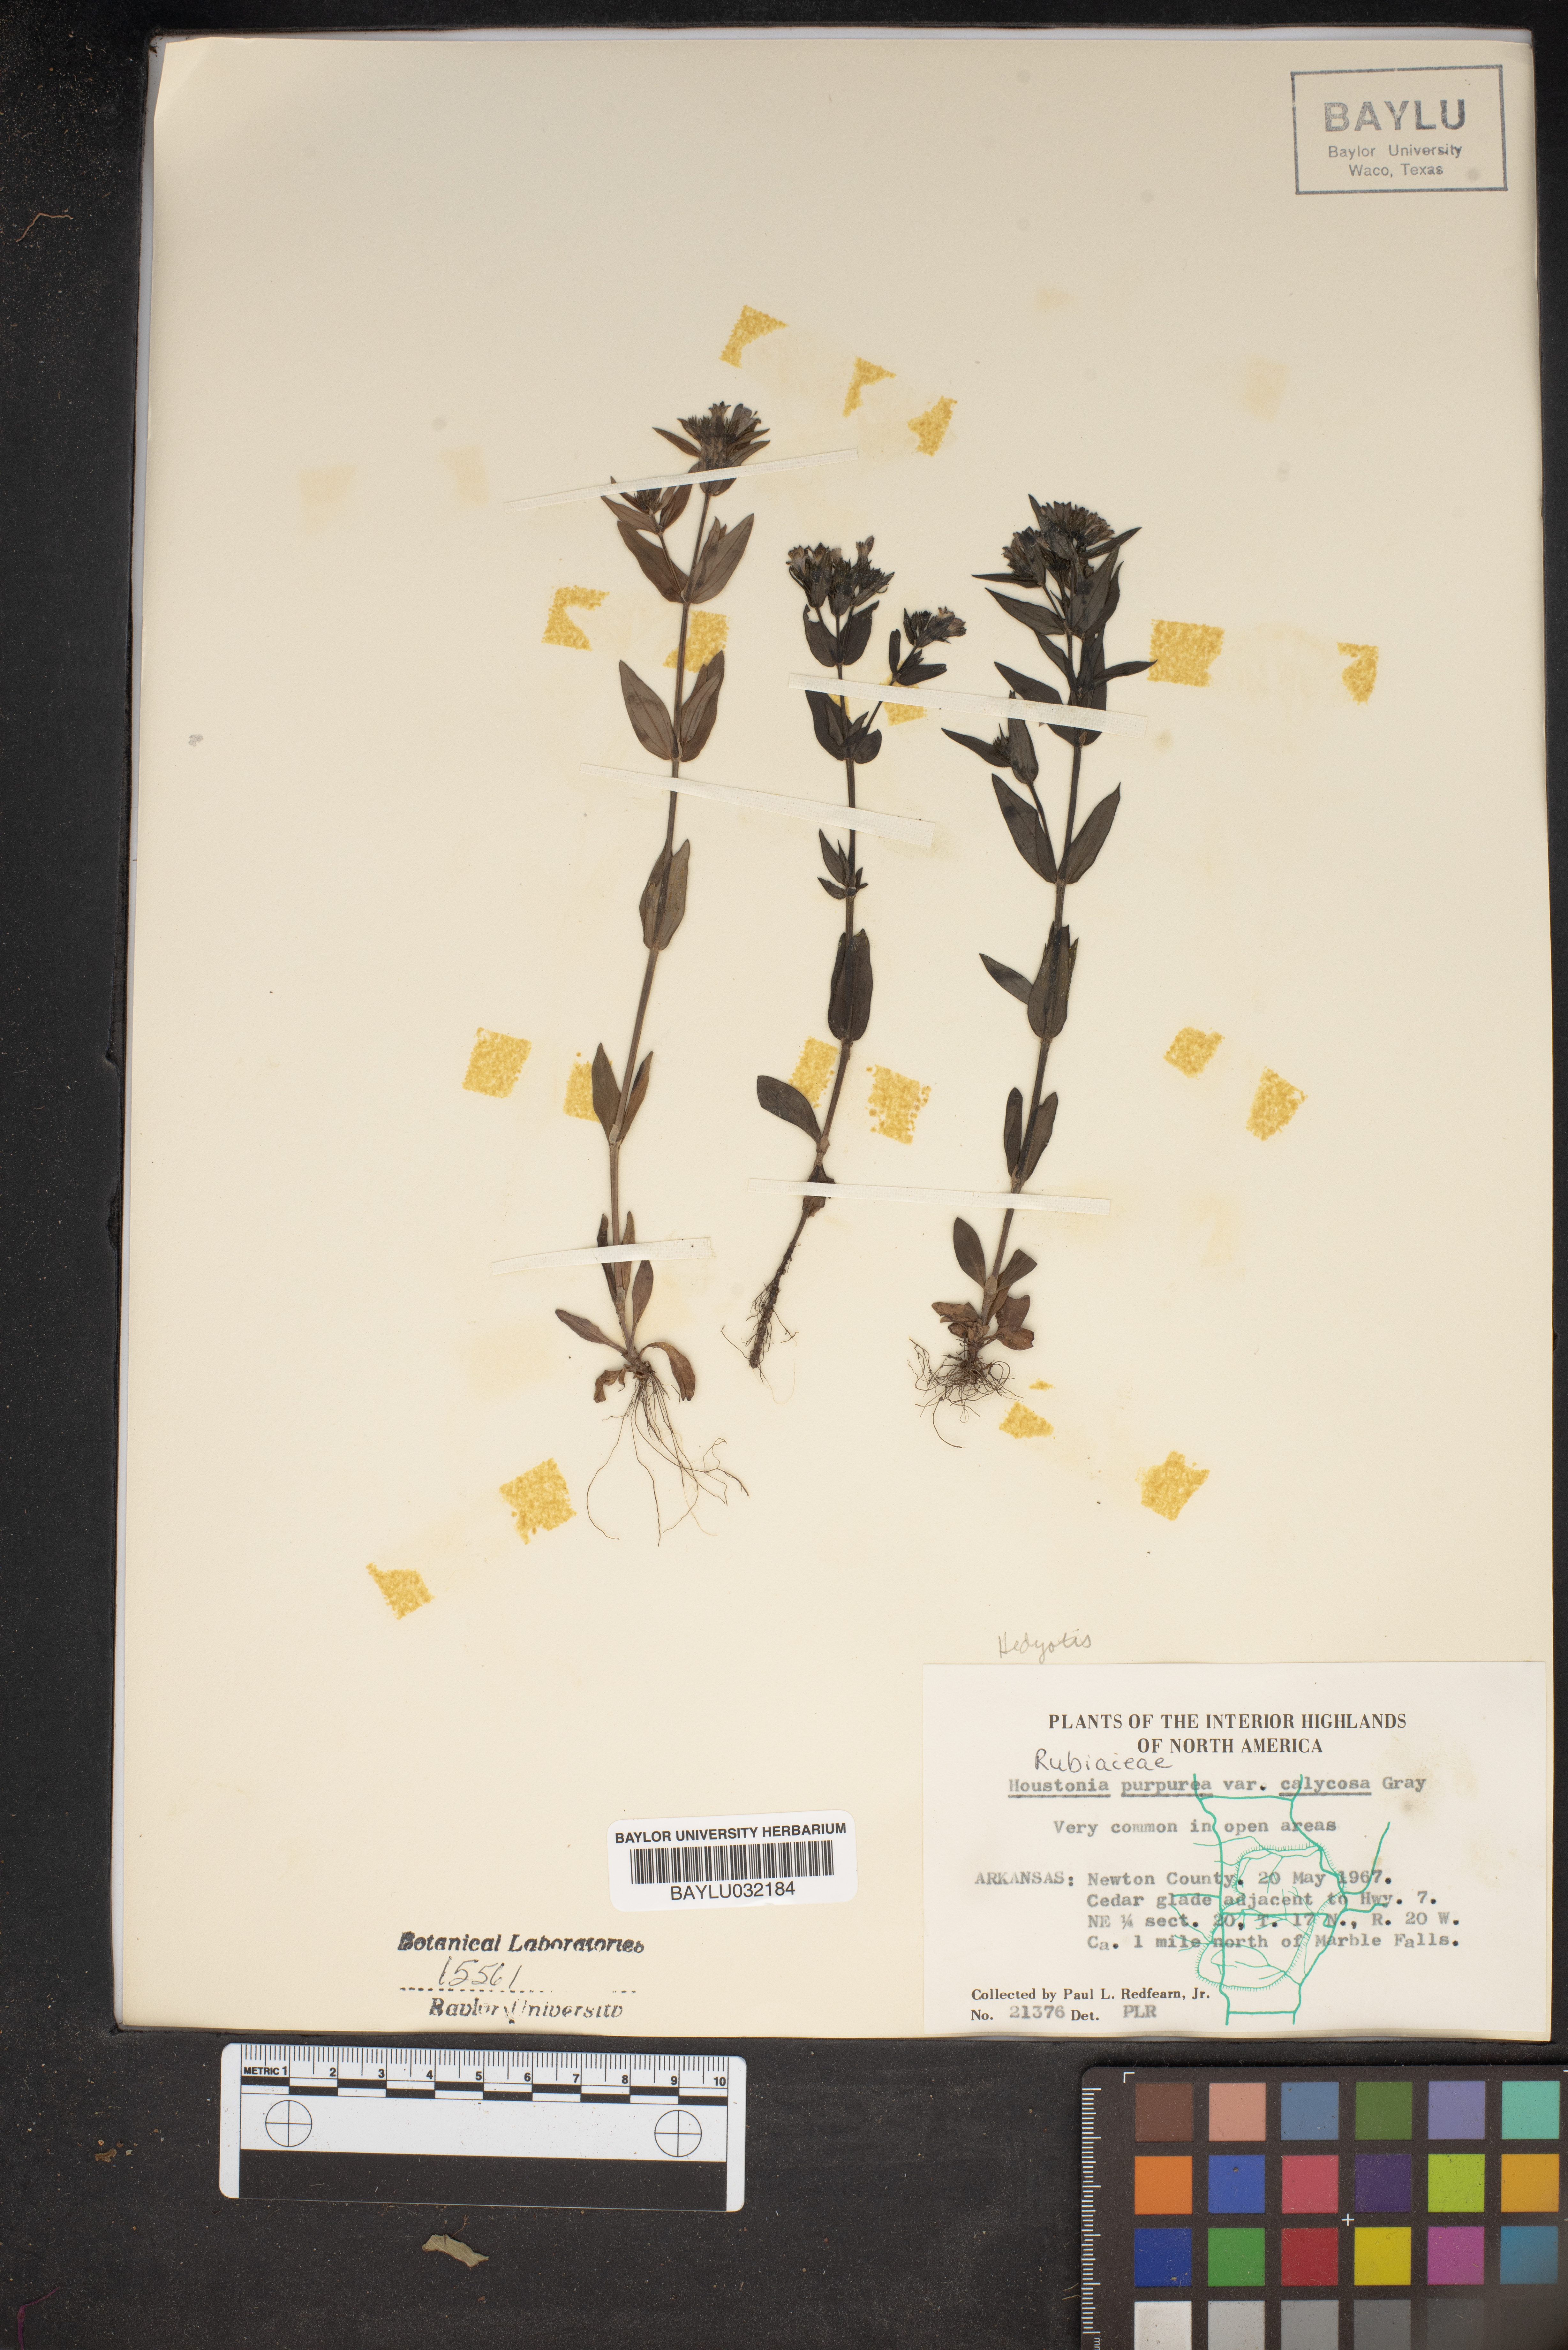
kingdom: Plantae
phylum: Tracheophyta
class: Magnoliopsida
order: Gentianales
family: Rubiaceae
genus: Houstonia
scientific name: Houstonia purpurea
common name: Summer bluet
